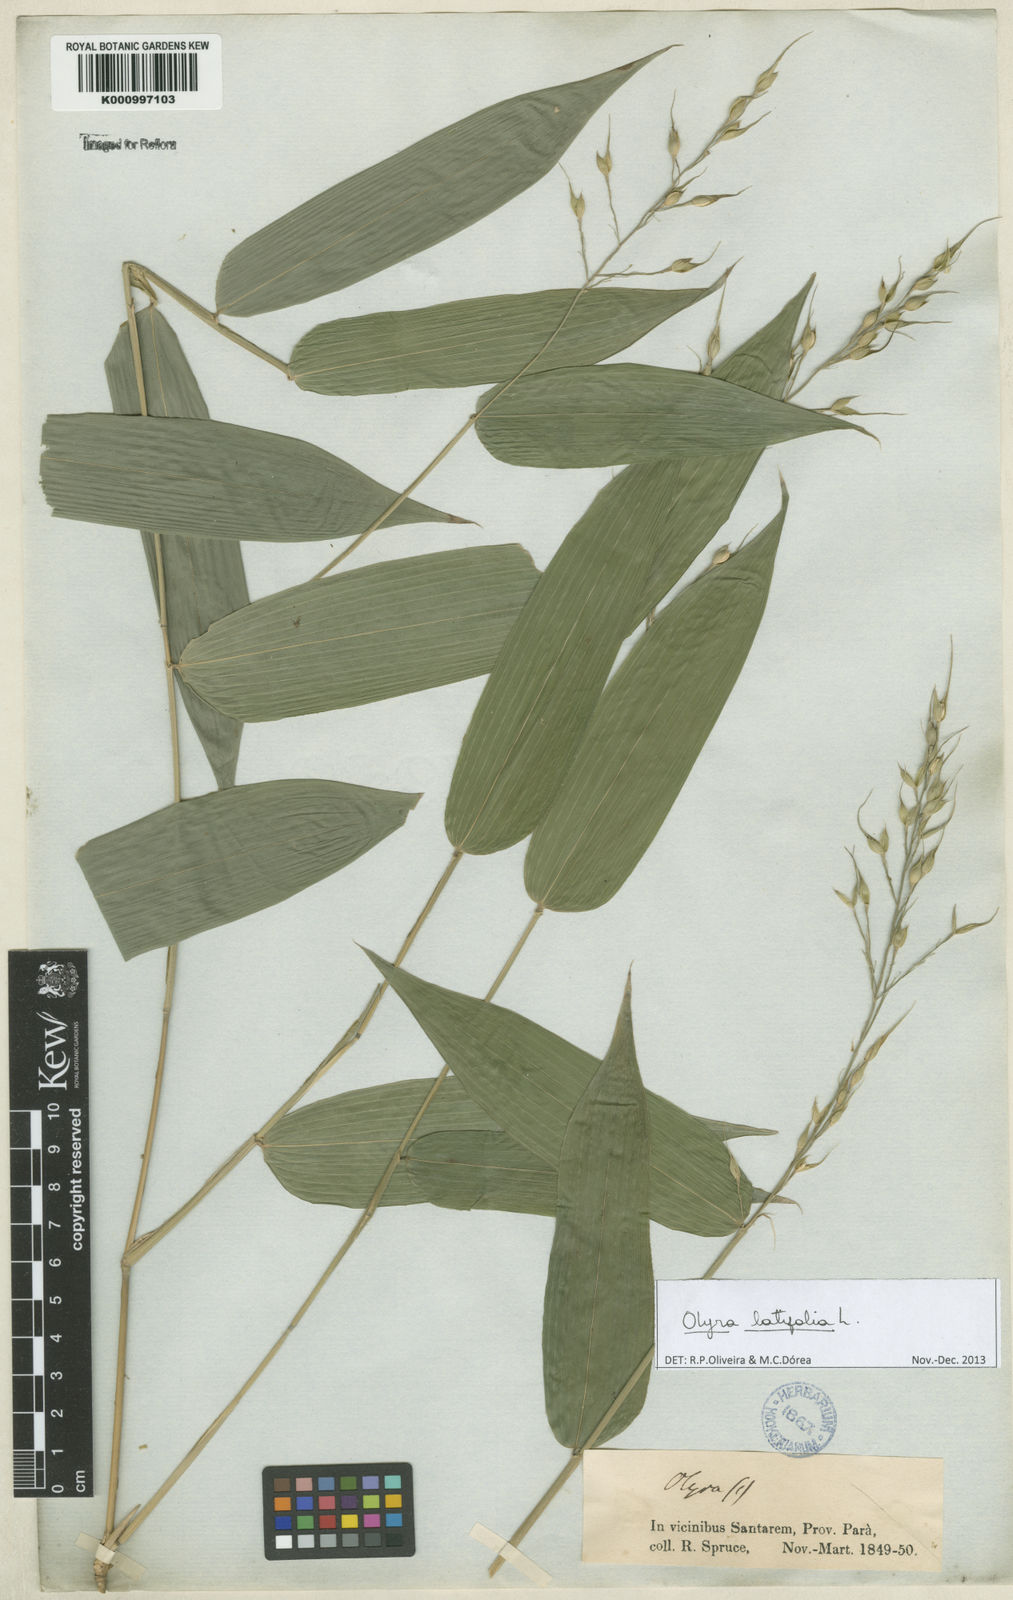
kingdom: Plantae
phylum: Tracheophyta
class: Liliopsida
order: Poales
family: Poaceae
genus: Olyra
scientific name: Olyra latifolia
